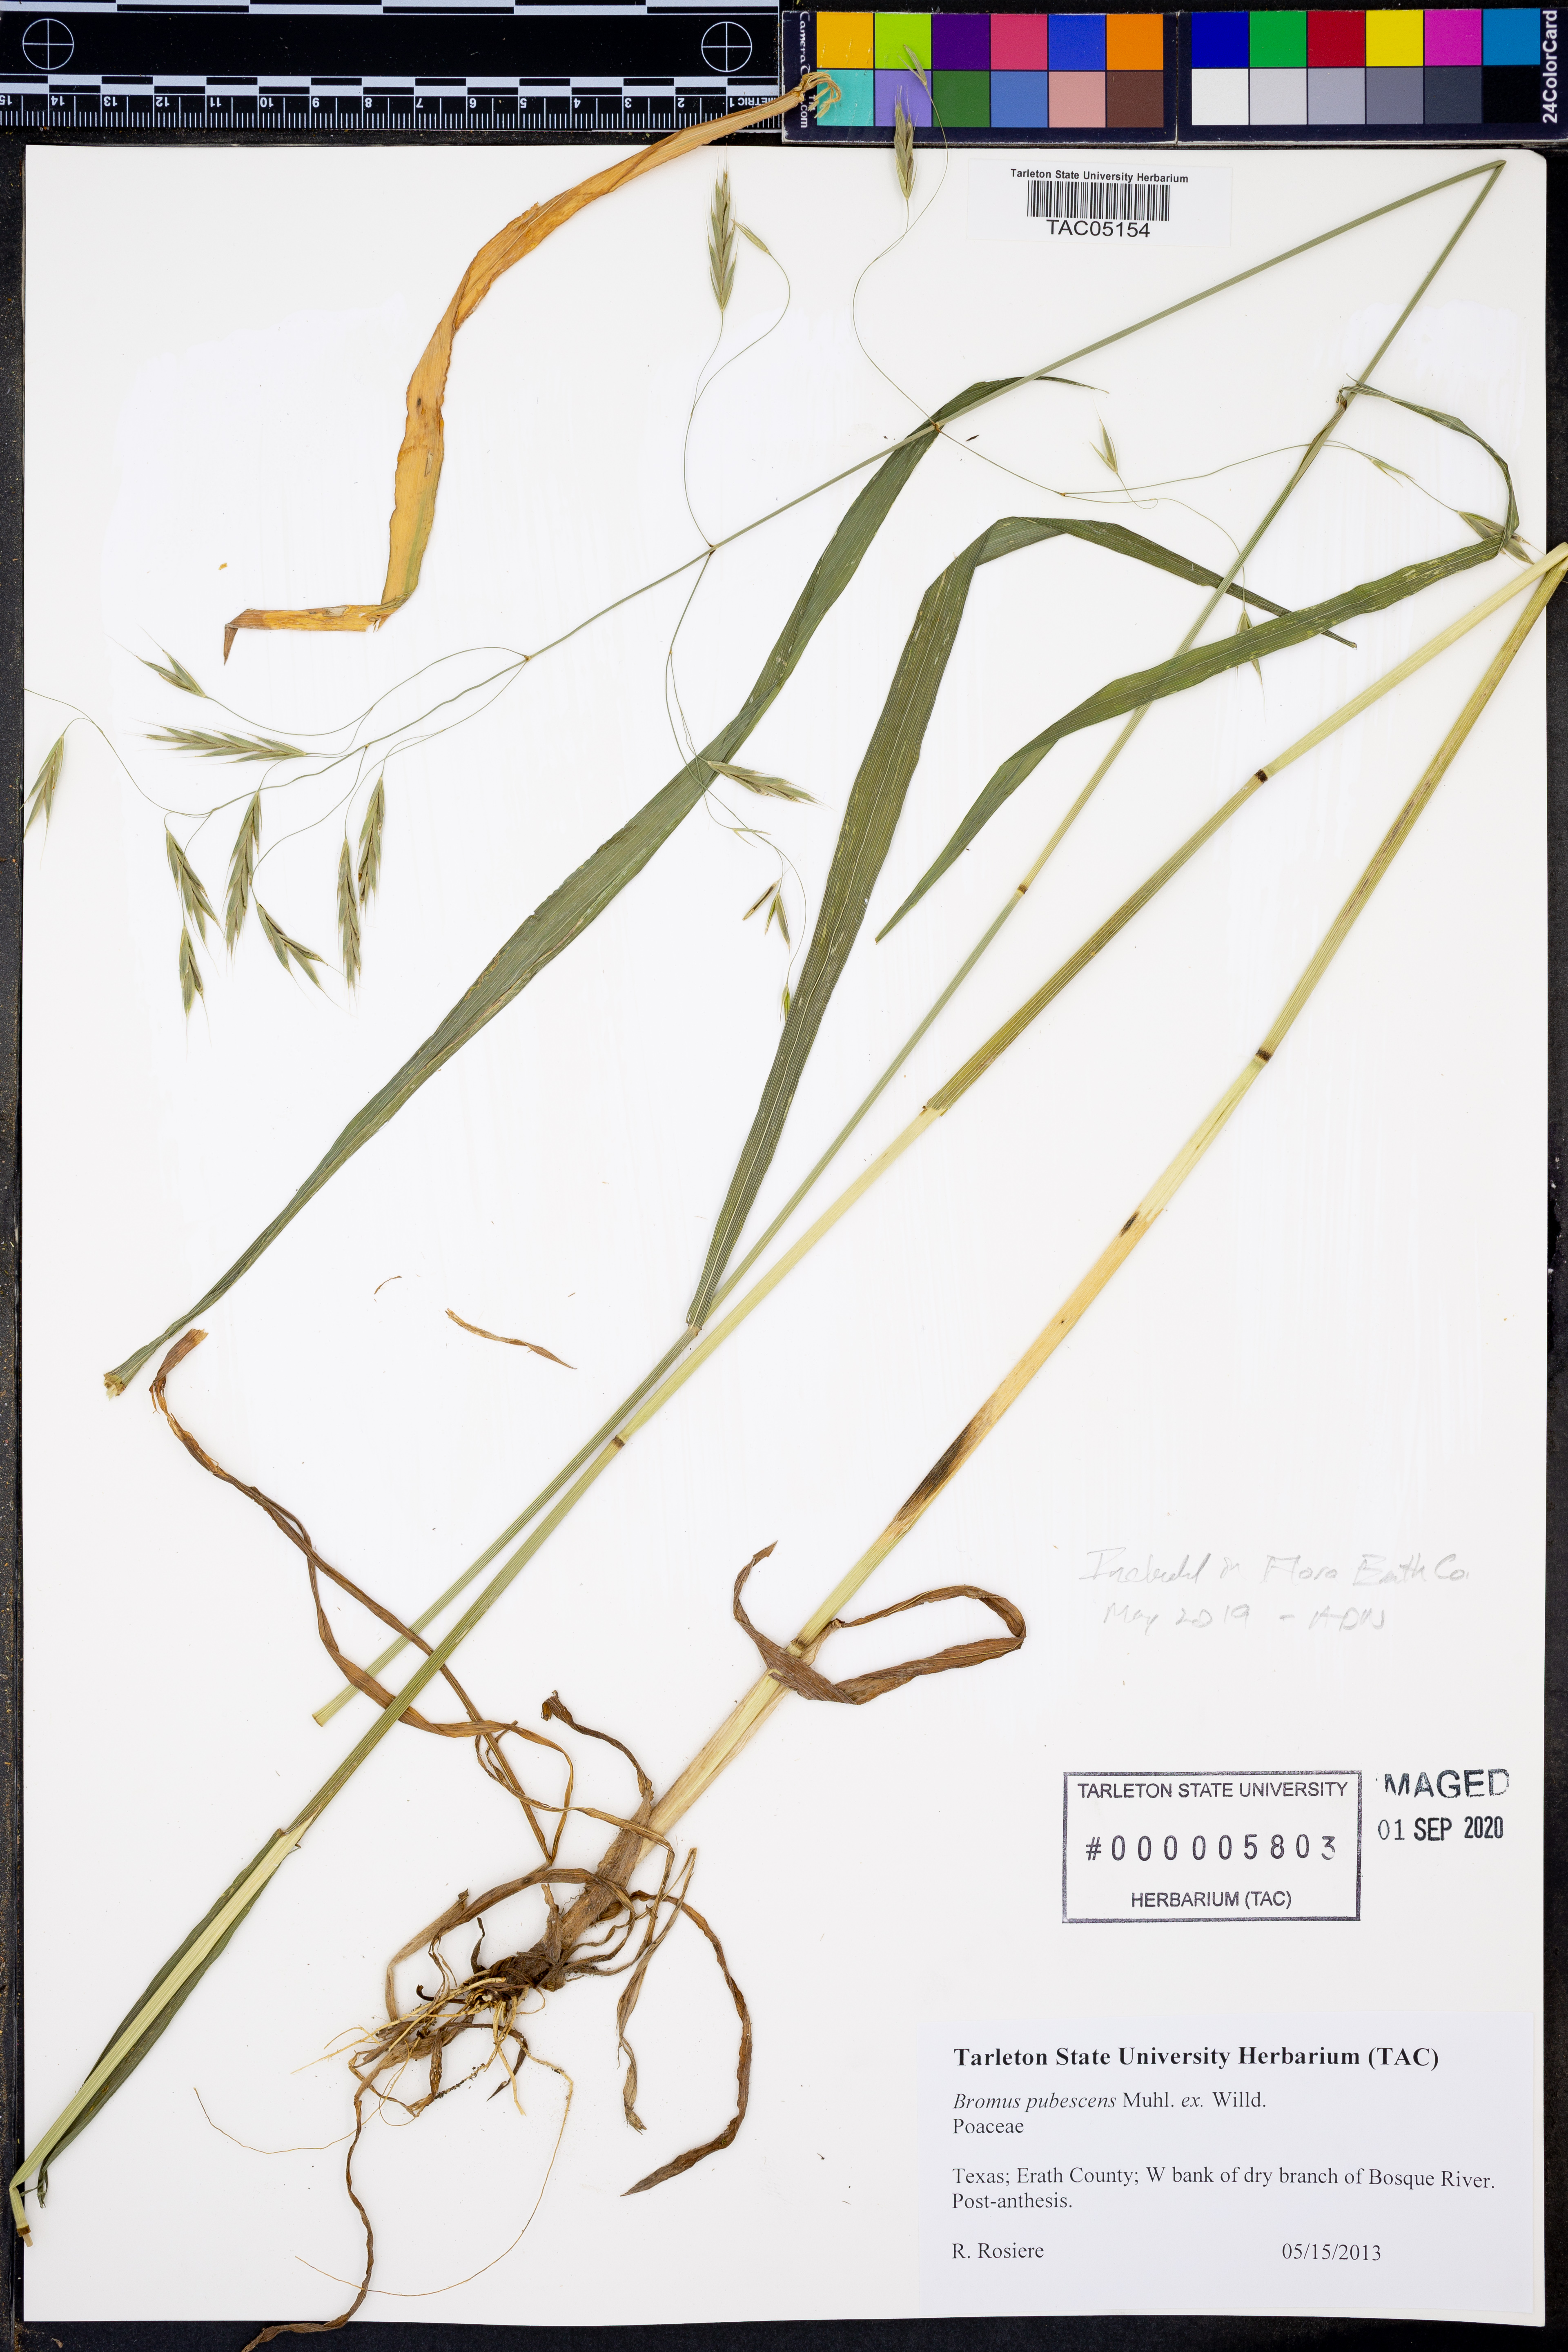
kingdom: Plantae
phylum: Tracheophyta
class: Liliopsida
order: Poales
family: Poaceae
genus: Bromus
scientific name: Bromus pubescens
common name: Hairy wood brome grass
